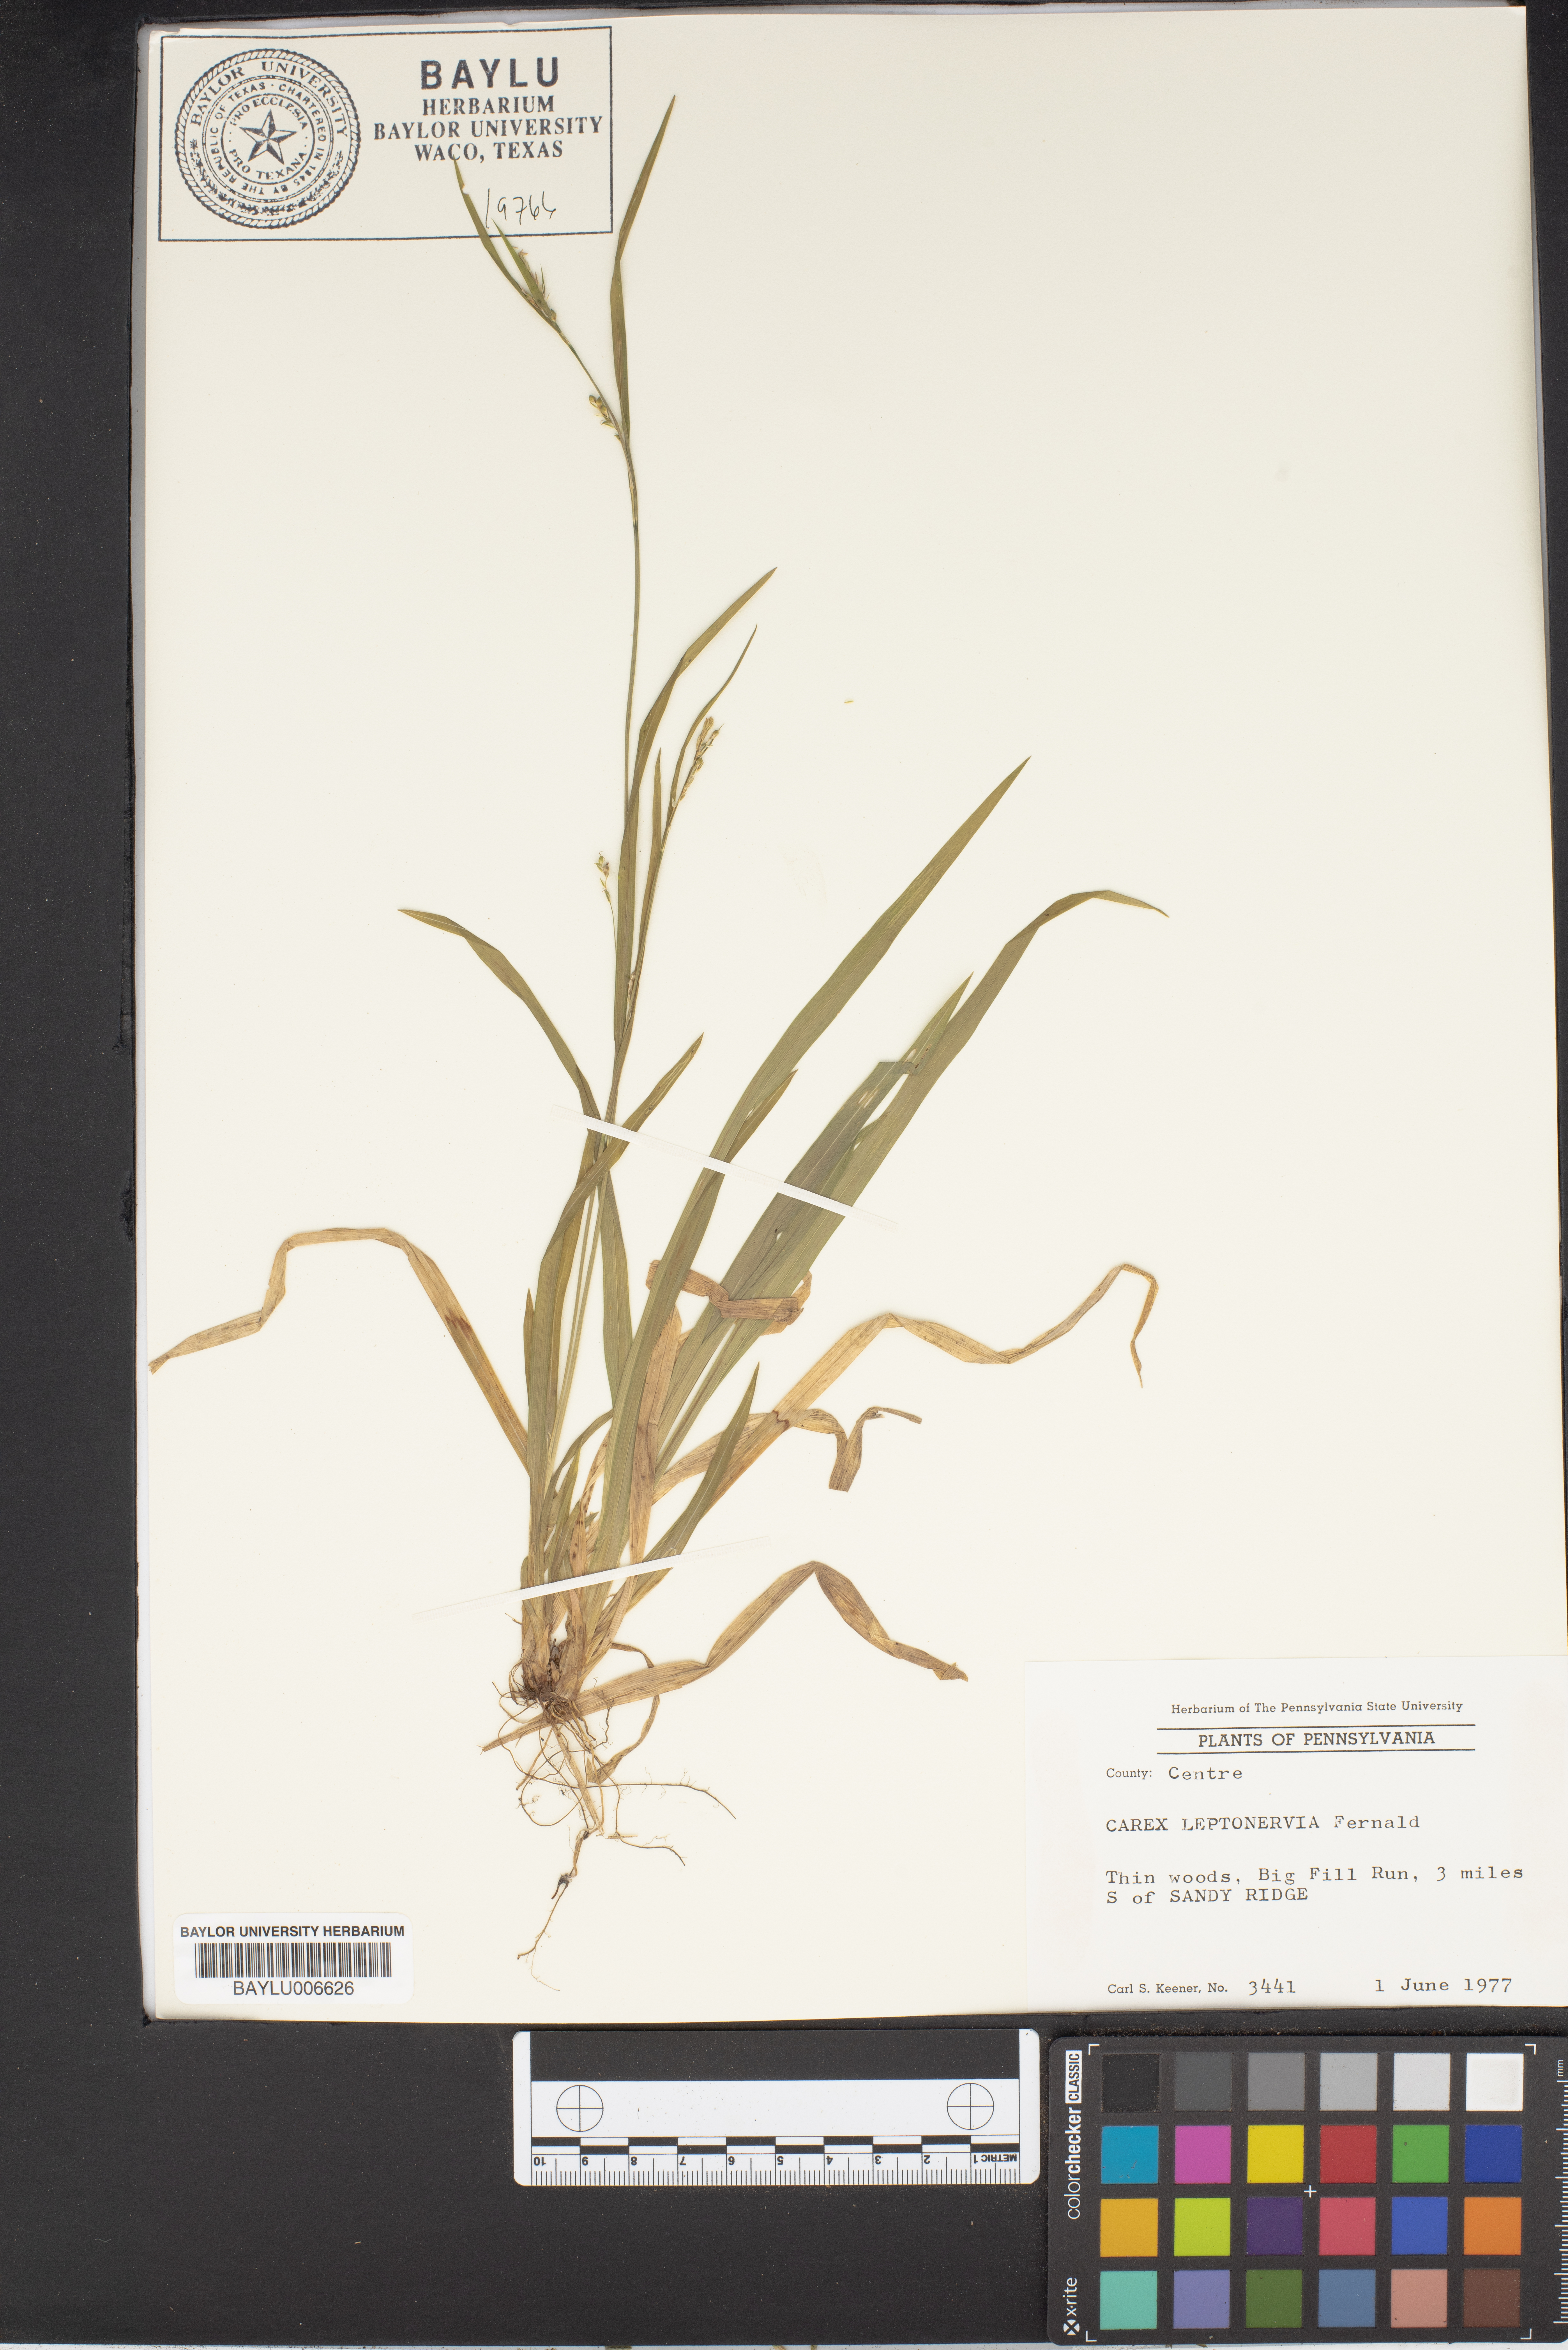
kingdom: Plantae
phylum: Tracheophyta
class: Liliopsida
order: Poales
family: Cyperaceae
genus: Carex
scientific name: Carex leptonervia
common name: Few-nerved wood sedge
